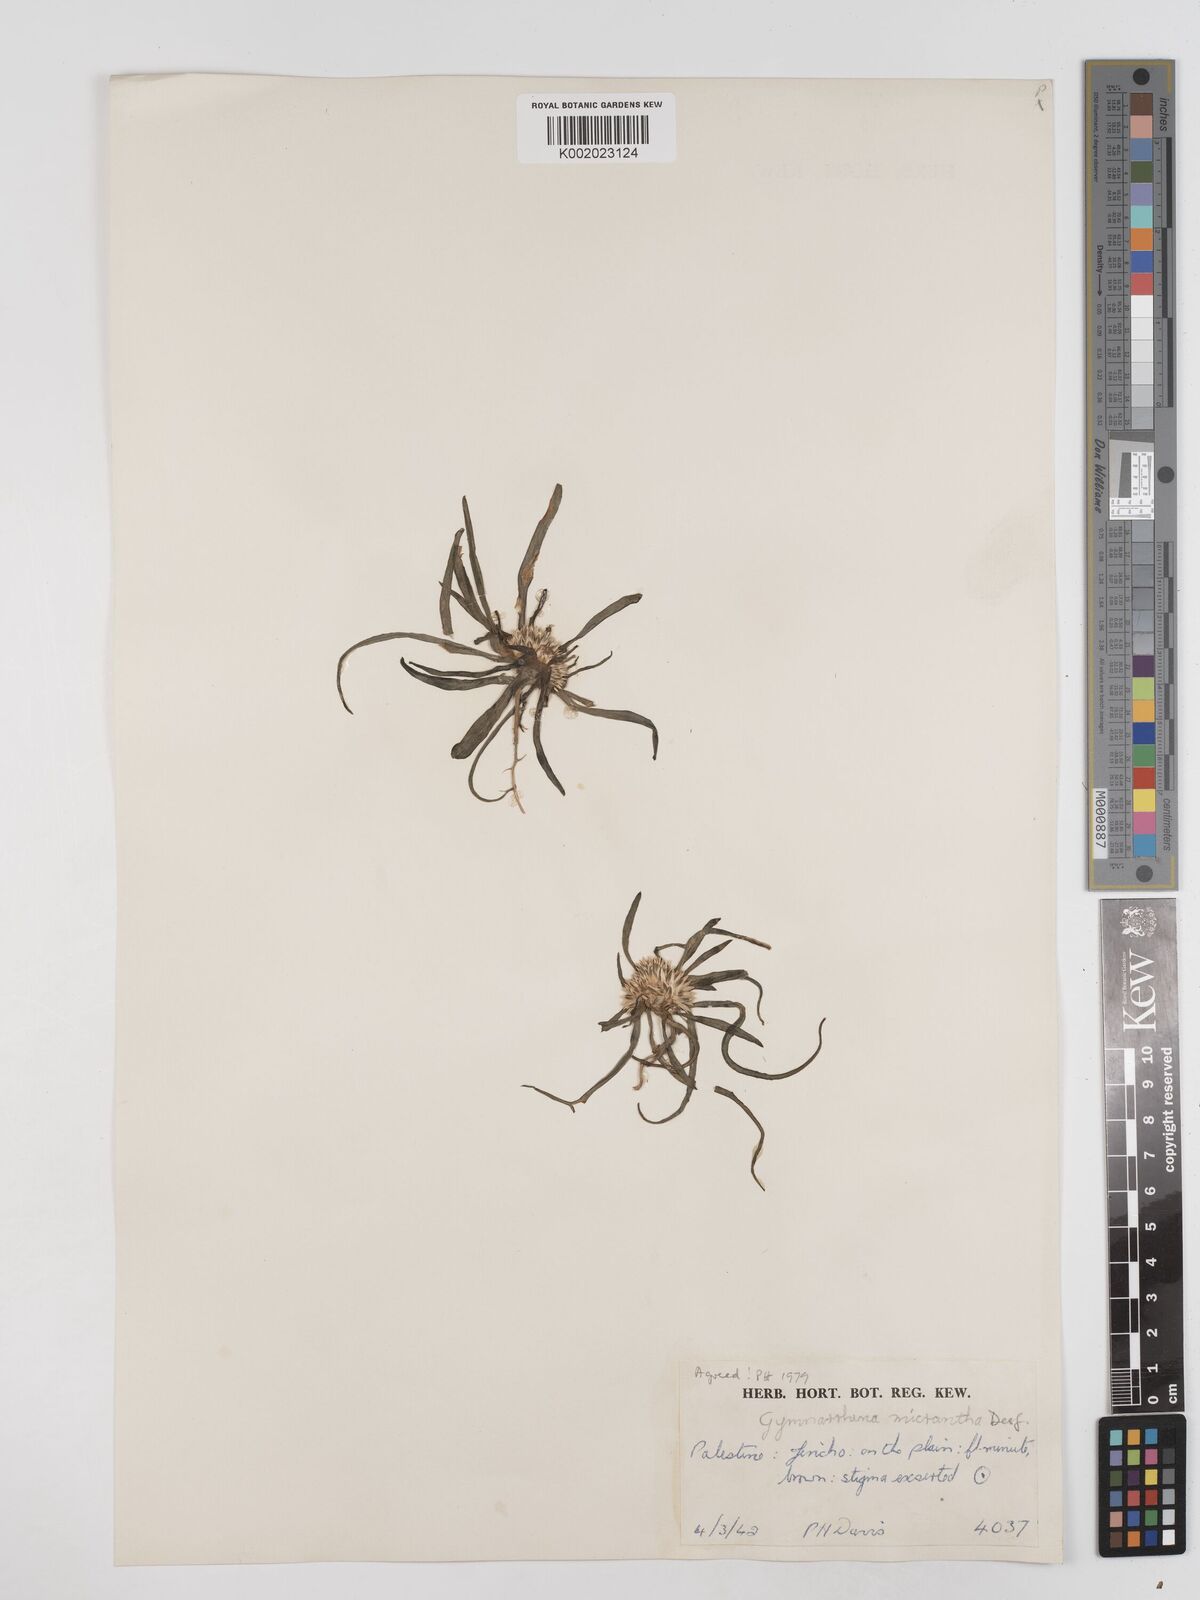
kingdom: Plantae
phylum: Tracheophyta
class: Magnoliopsida
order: Asterales
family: Asteraceae
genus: Gymnarrhena
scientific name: Gymnarrhena micrantha
